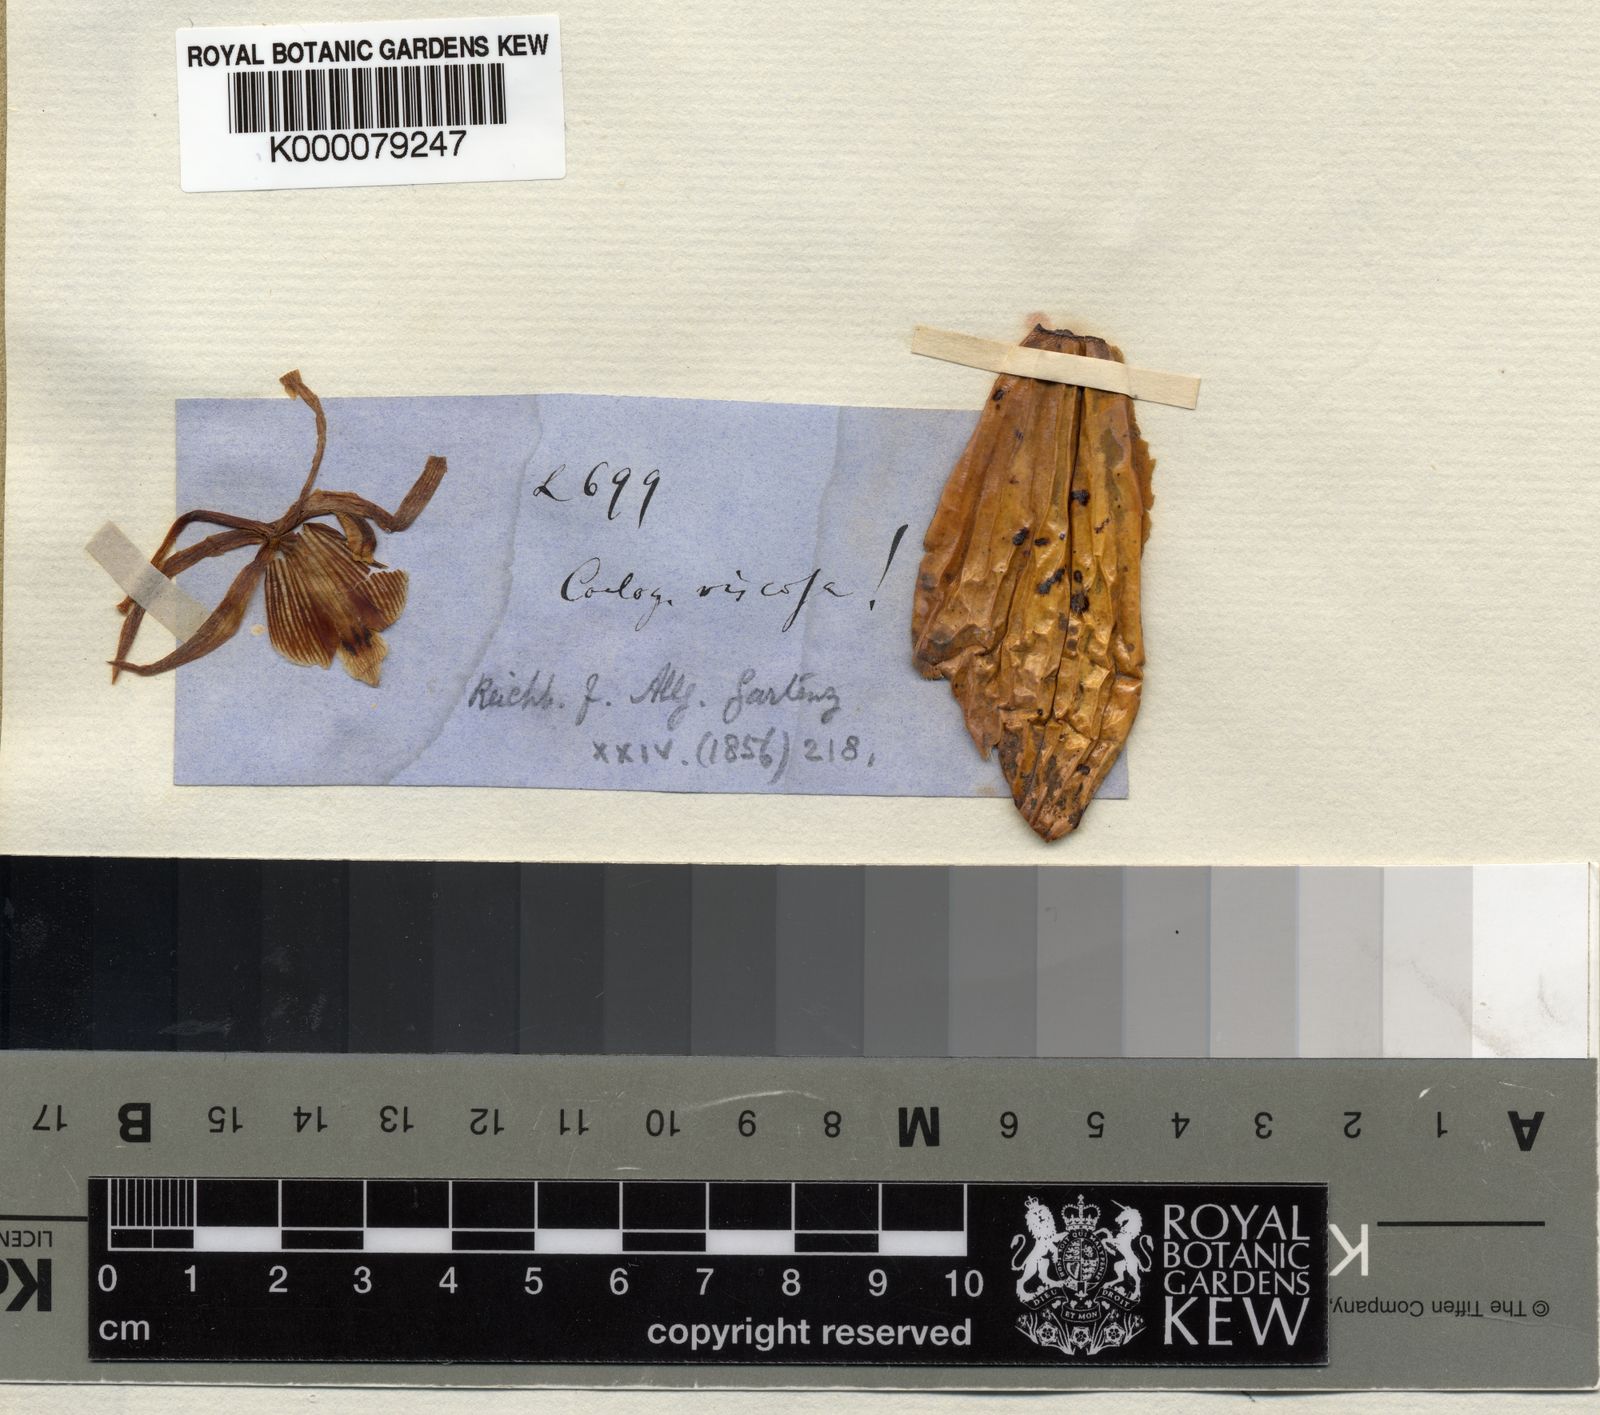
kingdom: Plantae
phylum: Tracheophyta
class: Liliopsida
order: Asparagales
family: Orchidaceae
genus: Coelogyne
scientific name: Coelogyne viscosa
